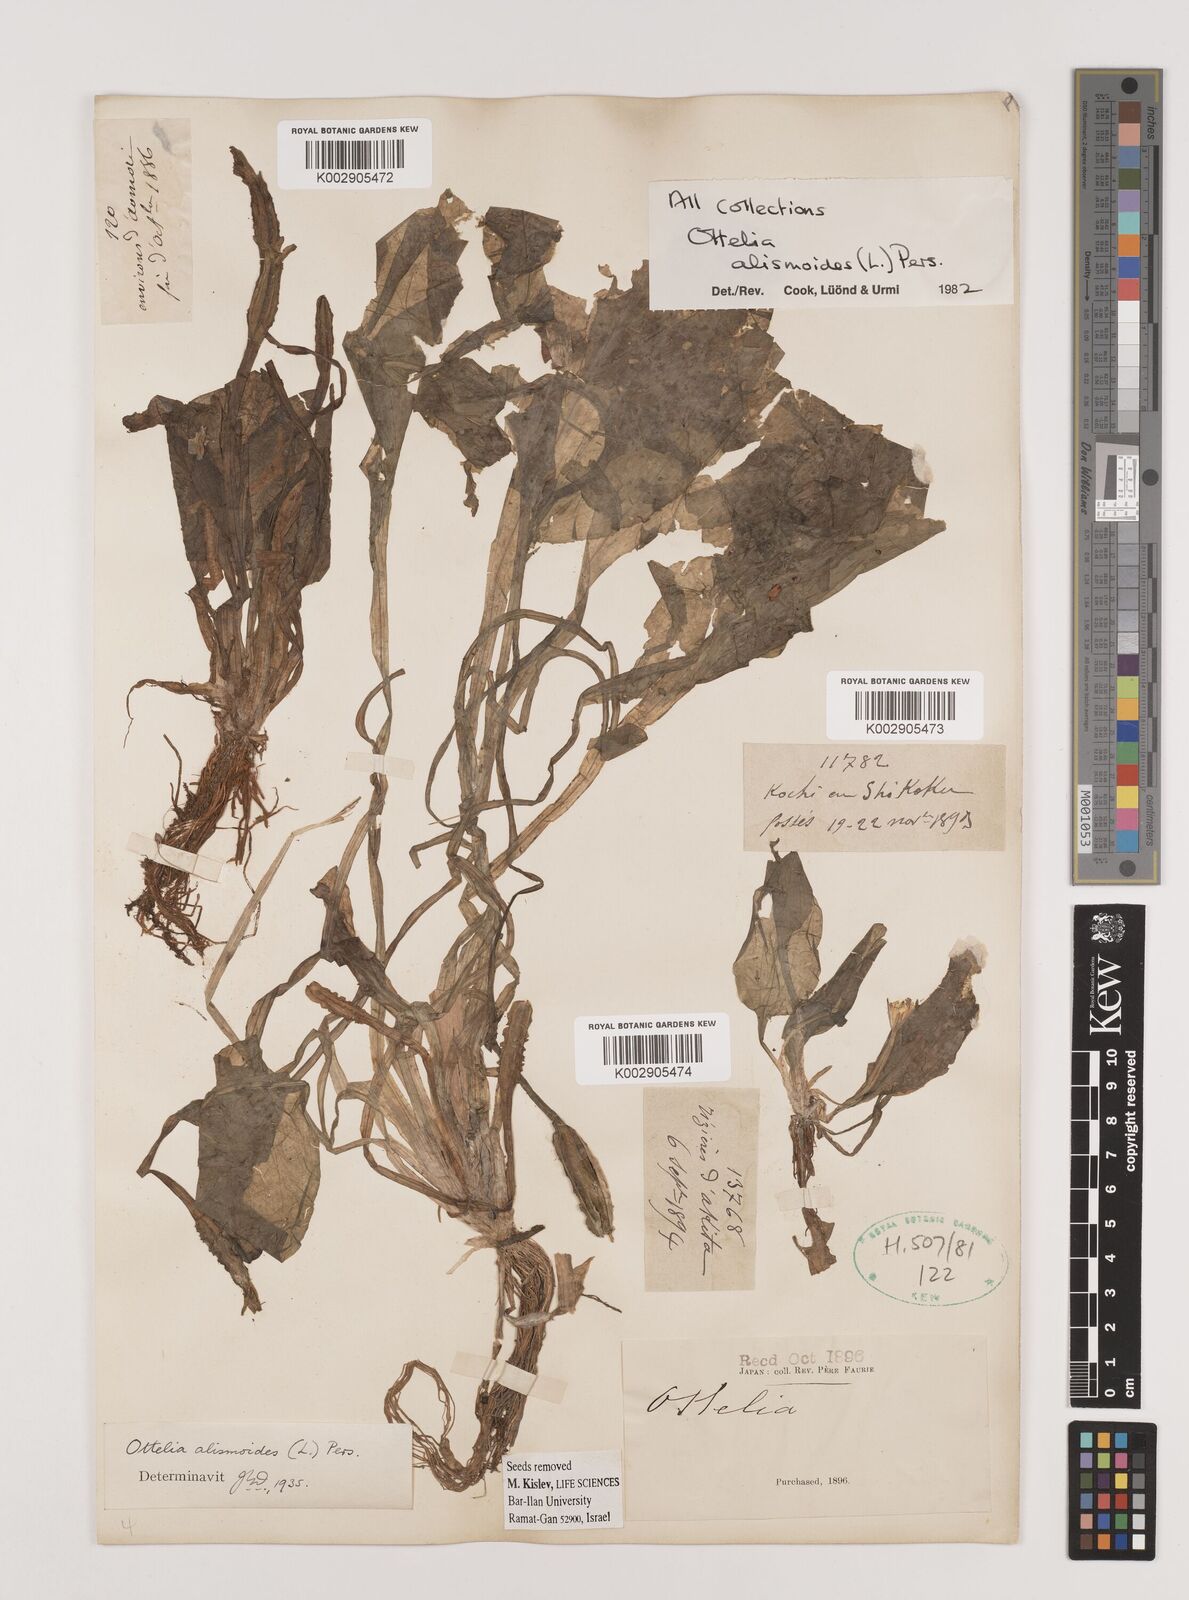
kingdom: Plantae
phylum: Tracheophyta
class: Liliopsida
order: Alismatales
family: Hydrocharitaceae
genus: Ottelia
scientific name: Ottelia alismoides
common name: Duck-lettuce
